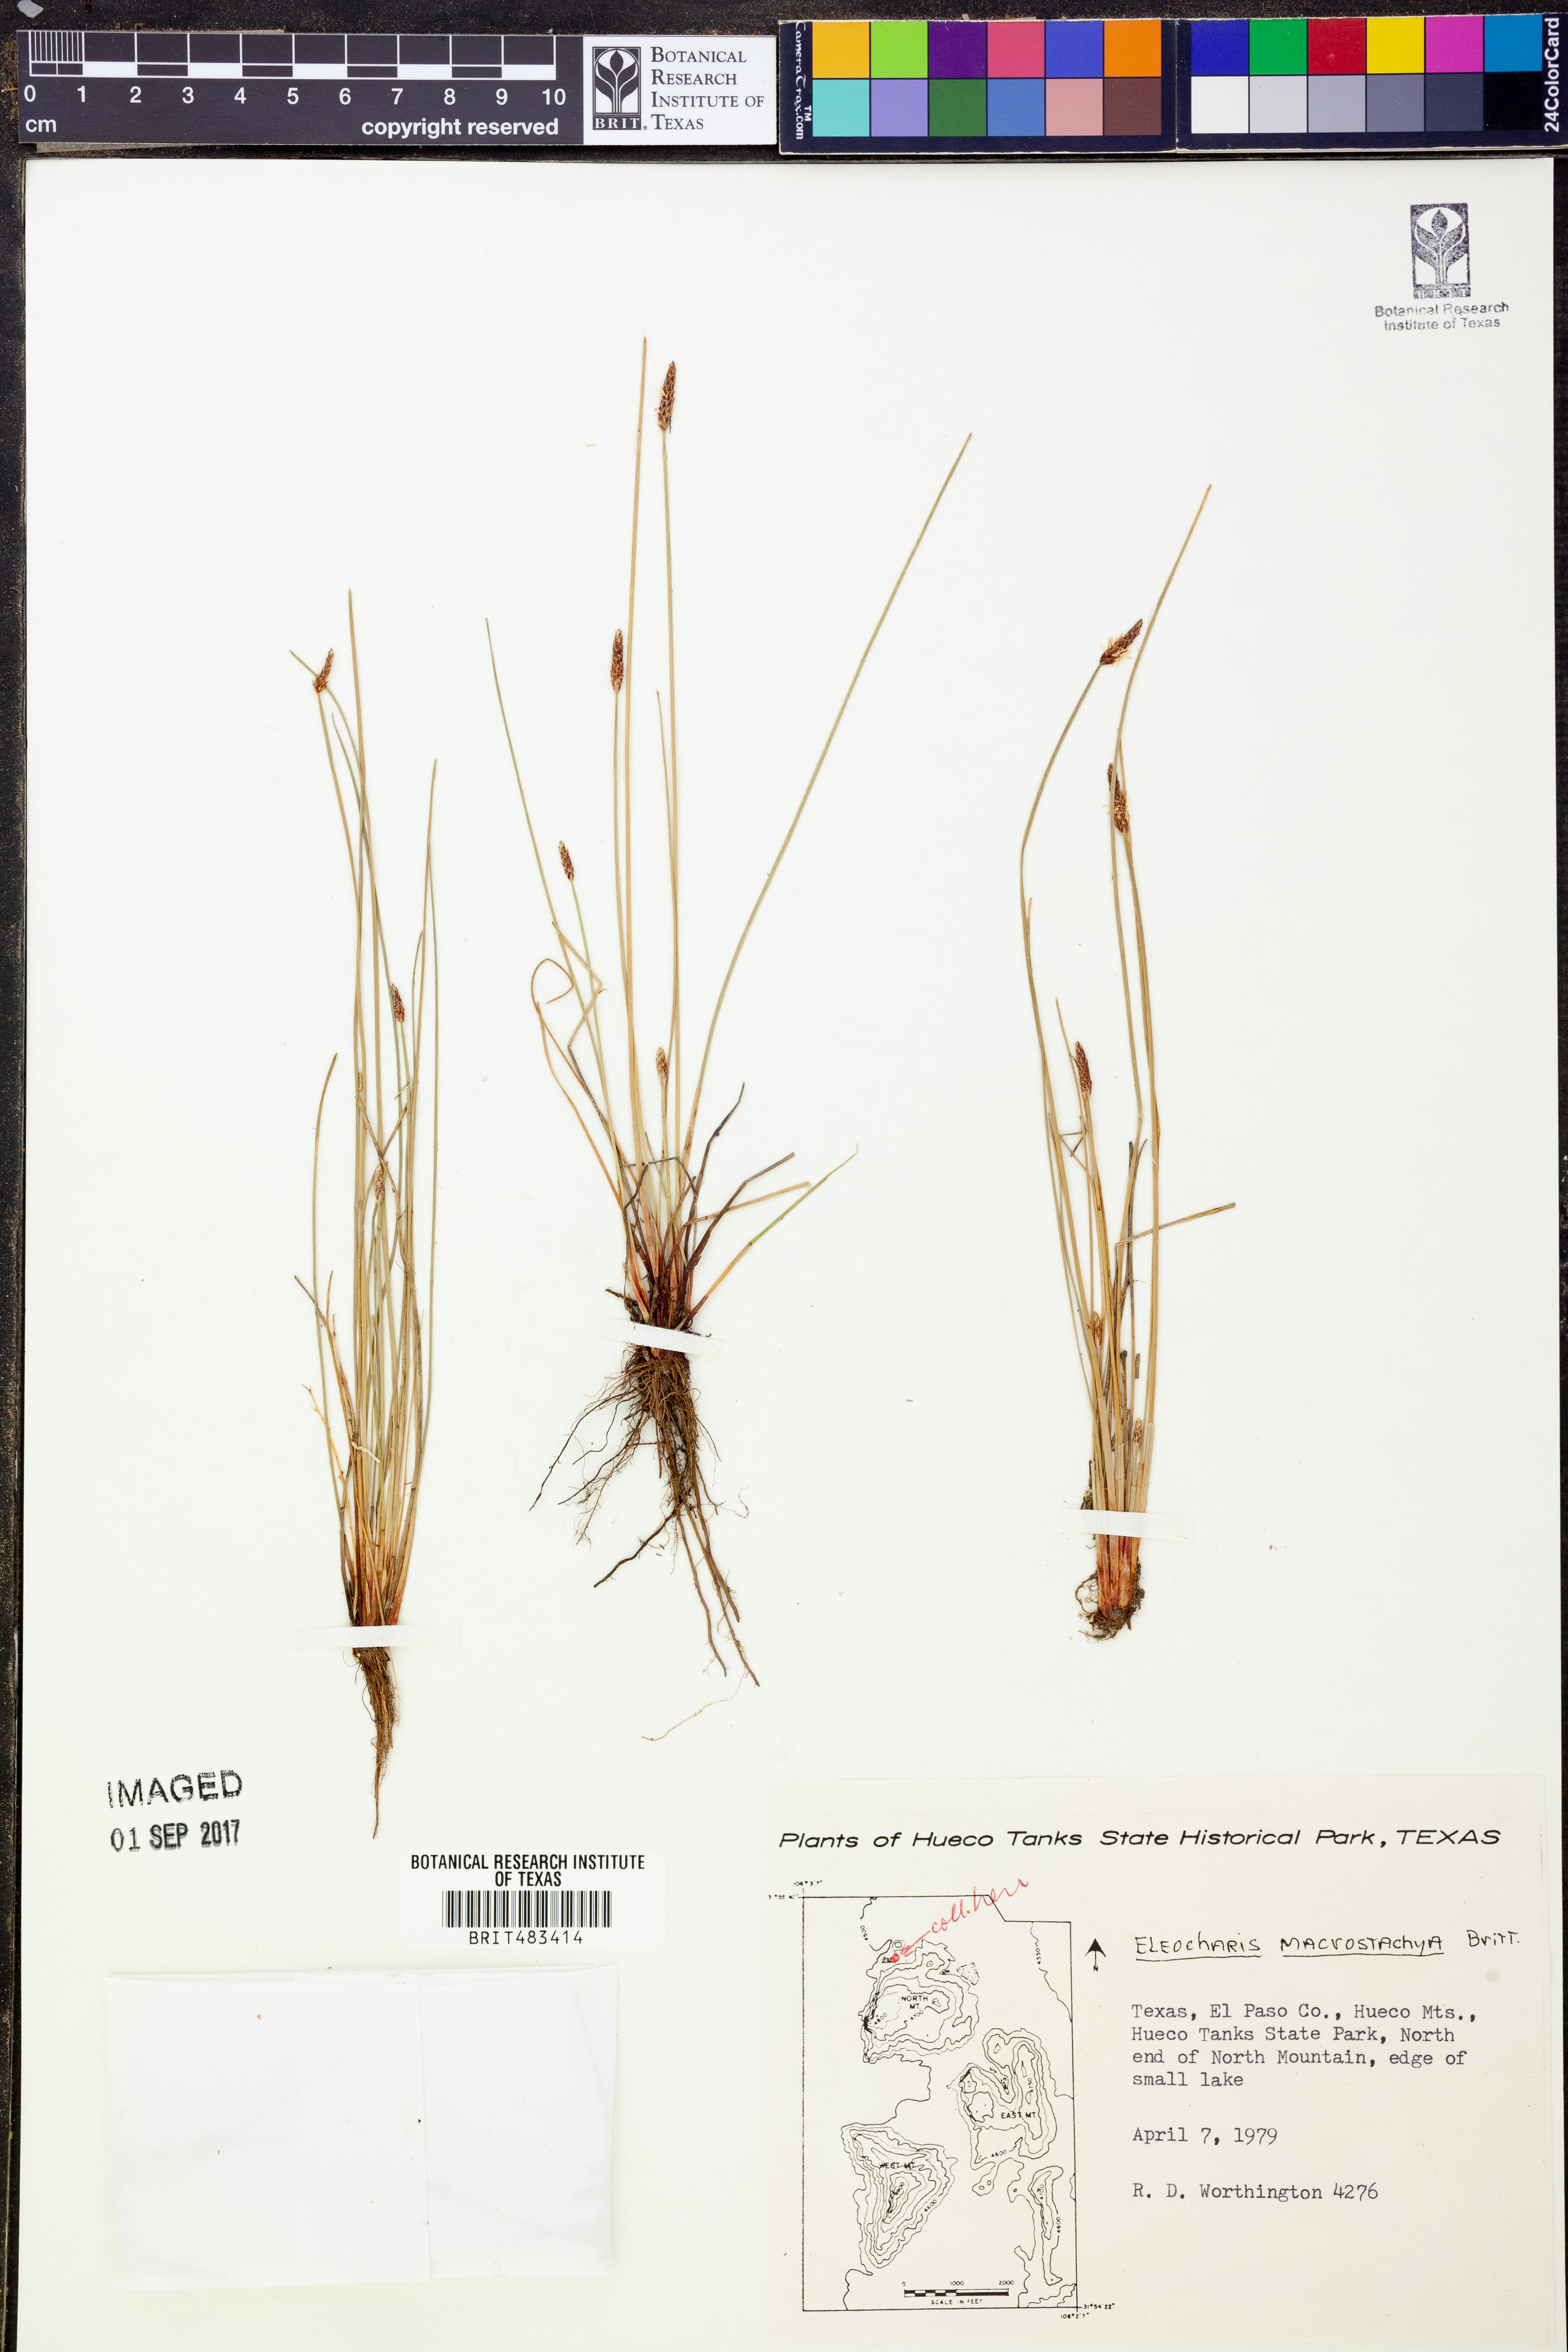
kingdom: Plantae
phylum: Tracheophyta
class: Liliopsida
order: Poales
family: Cyperaceae
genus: Eleocharis
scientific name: Eleocharis macrostachya
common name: Pale spikerush
